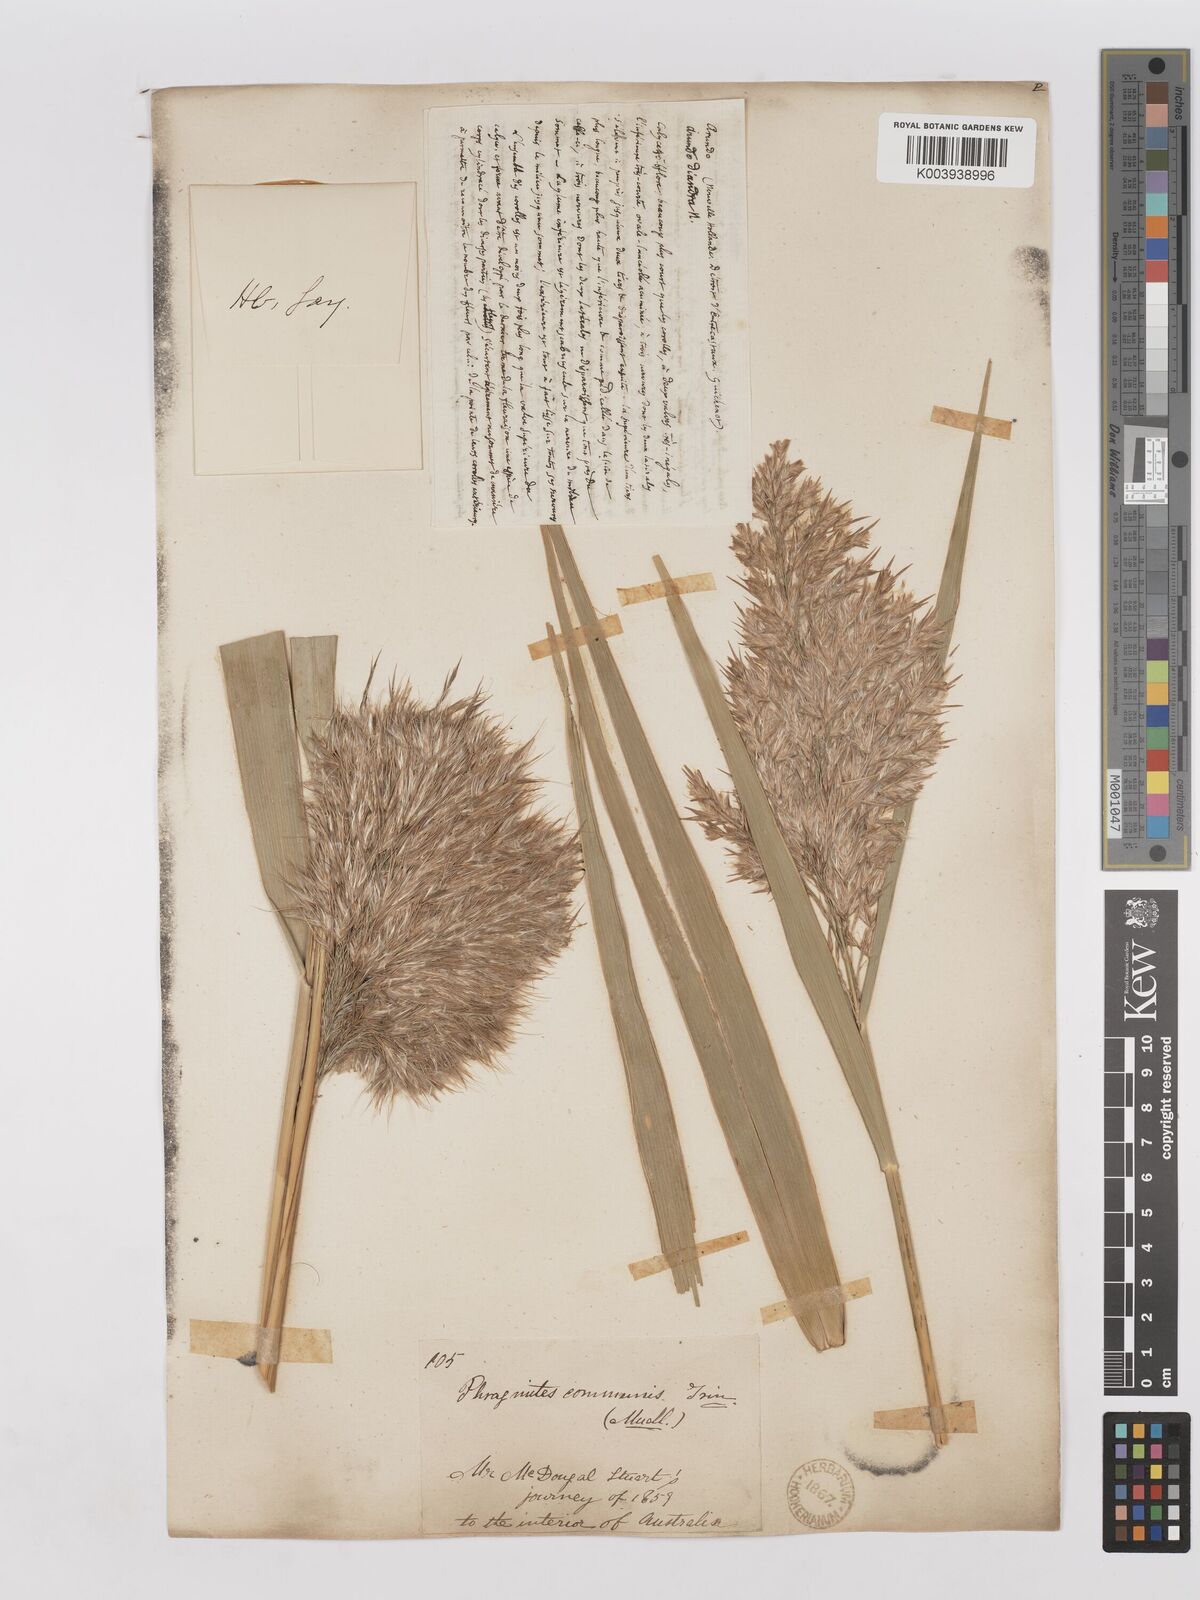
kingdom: Plantae
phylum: Tracheophyta
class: Liliopsida
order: Poales
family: Poaceae
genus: Phragmites
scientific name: Phragmites australis
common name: Common reed
